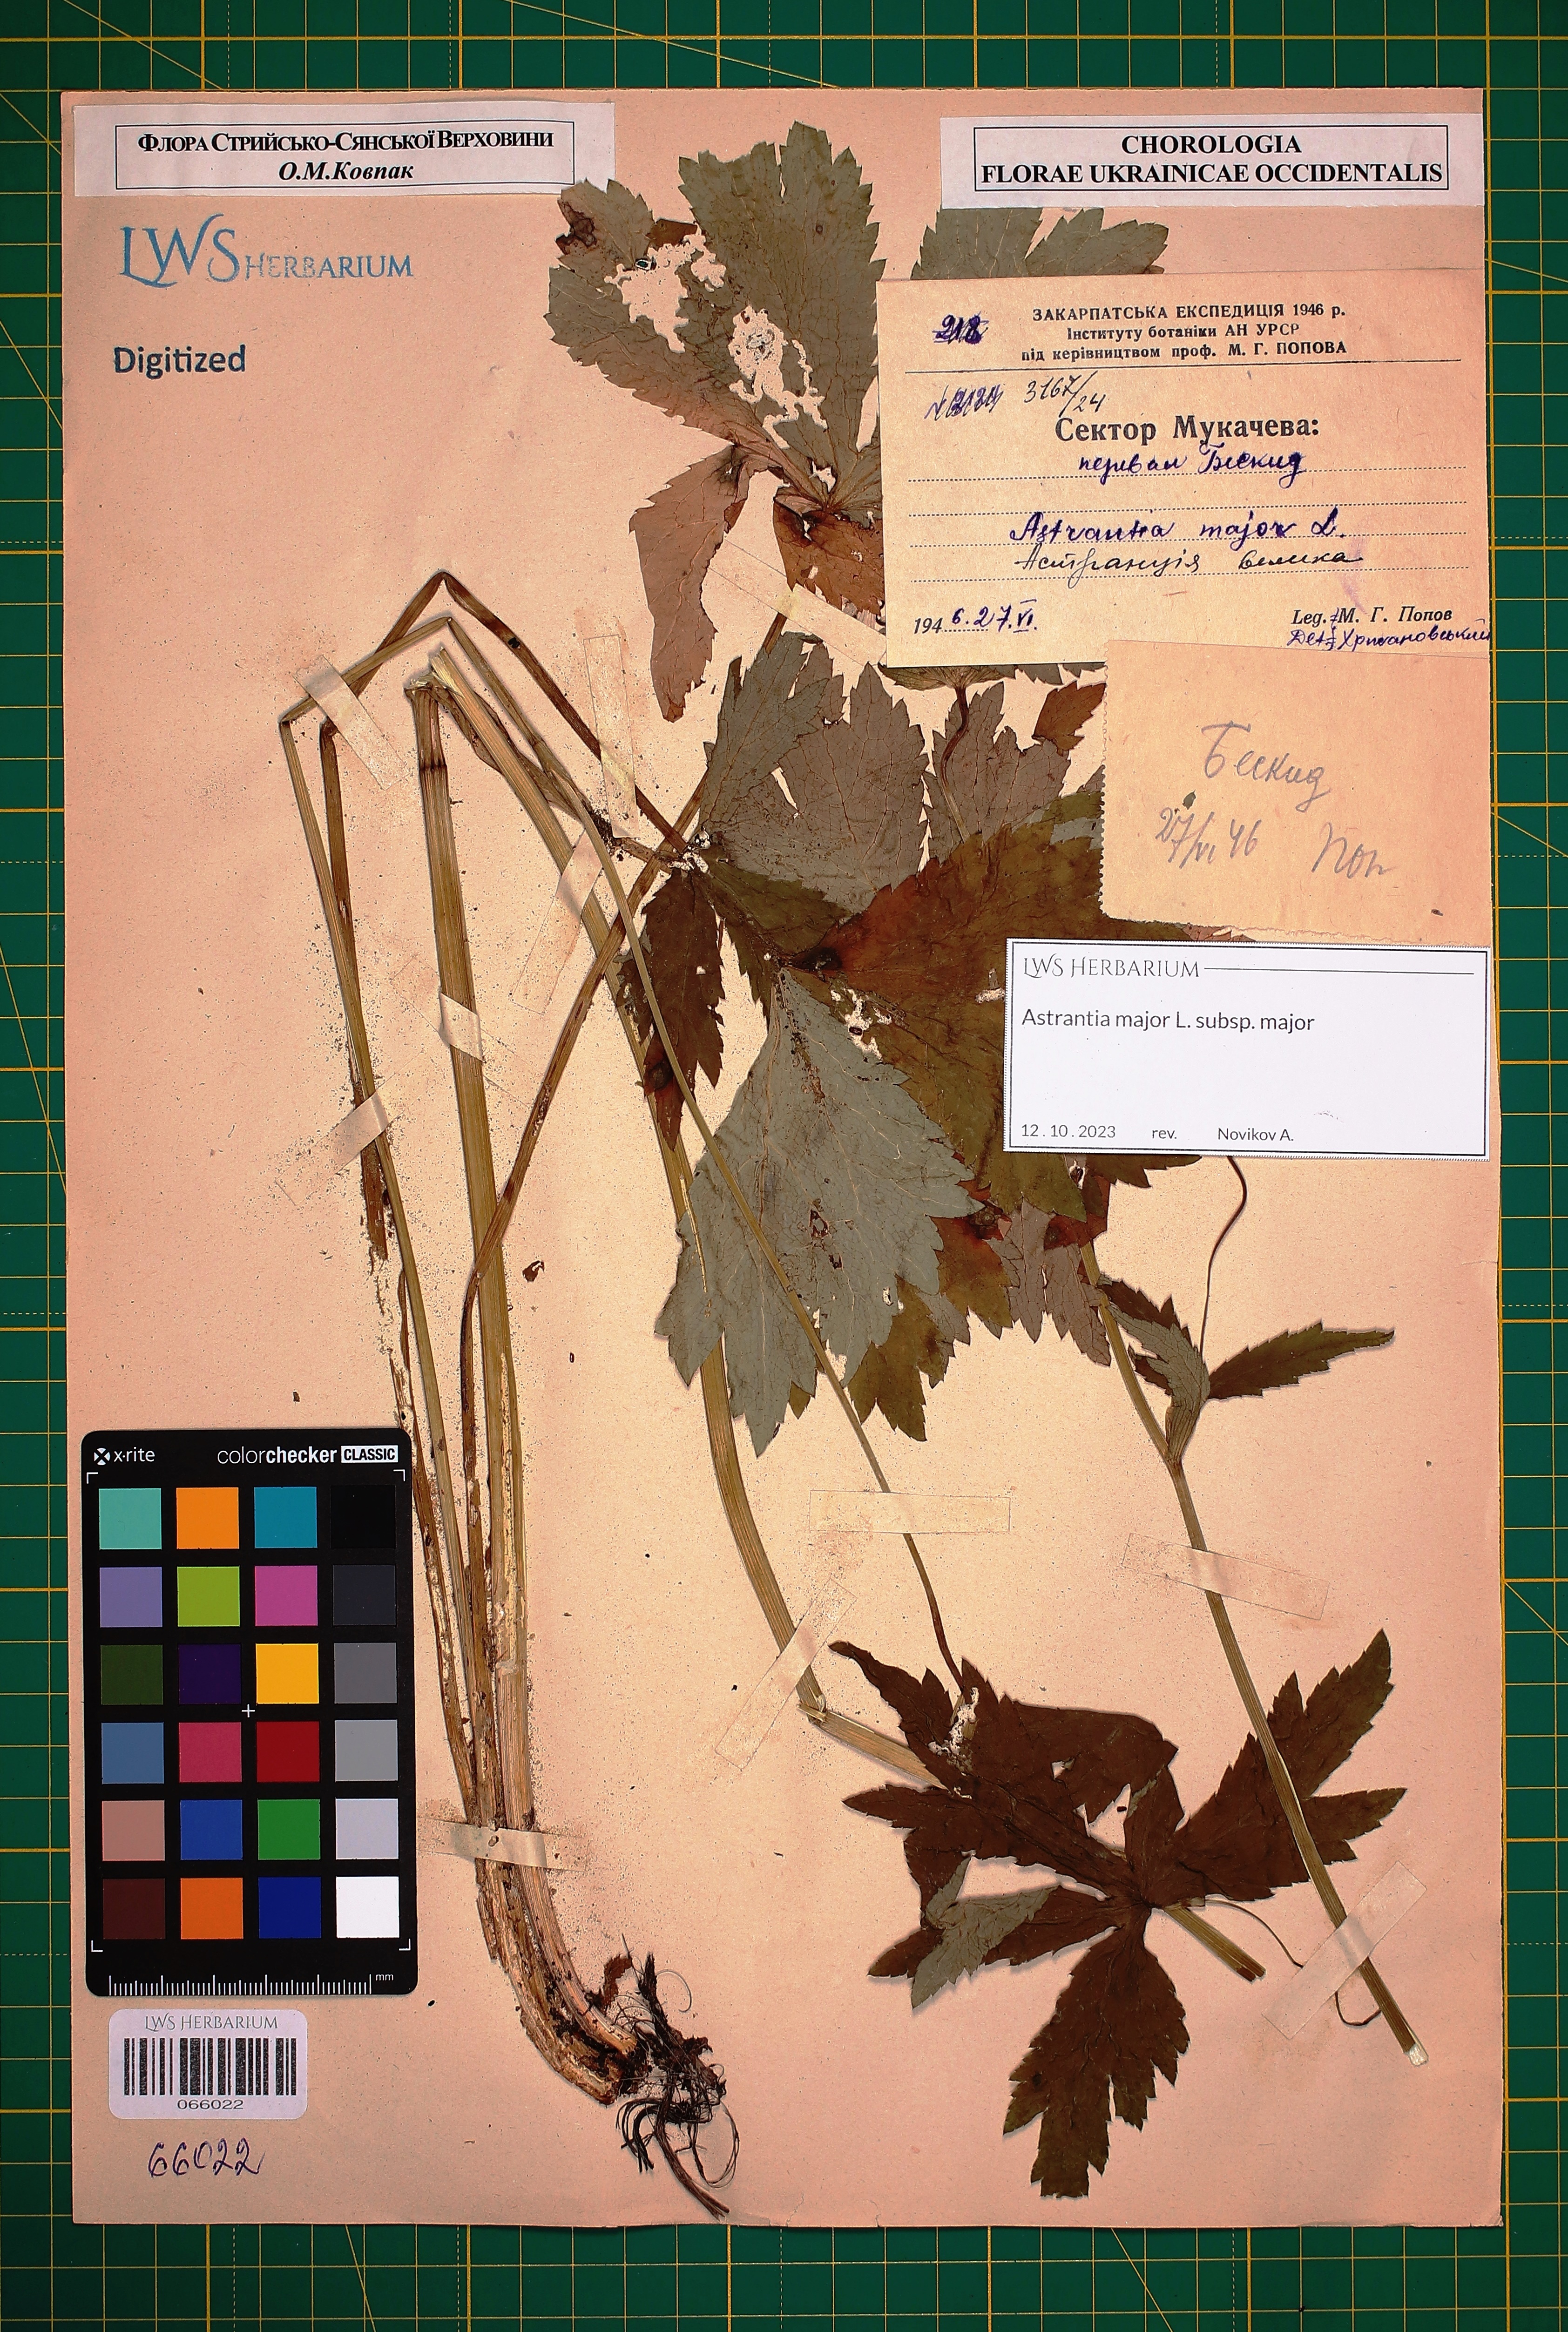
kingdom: Plantae
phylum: Tracheophyta
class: Magnoliopsida
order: Apiales
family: Apiaceae
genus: Astrantia
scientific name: Astrantia major
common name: Greater masterwort
